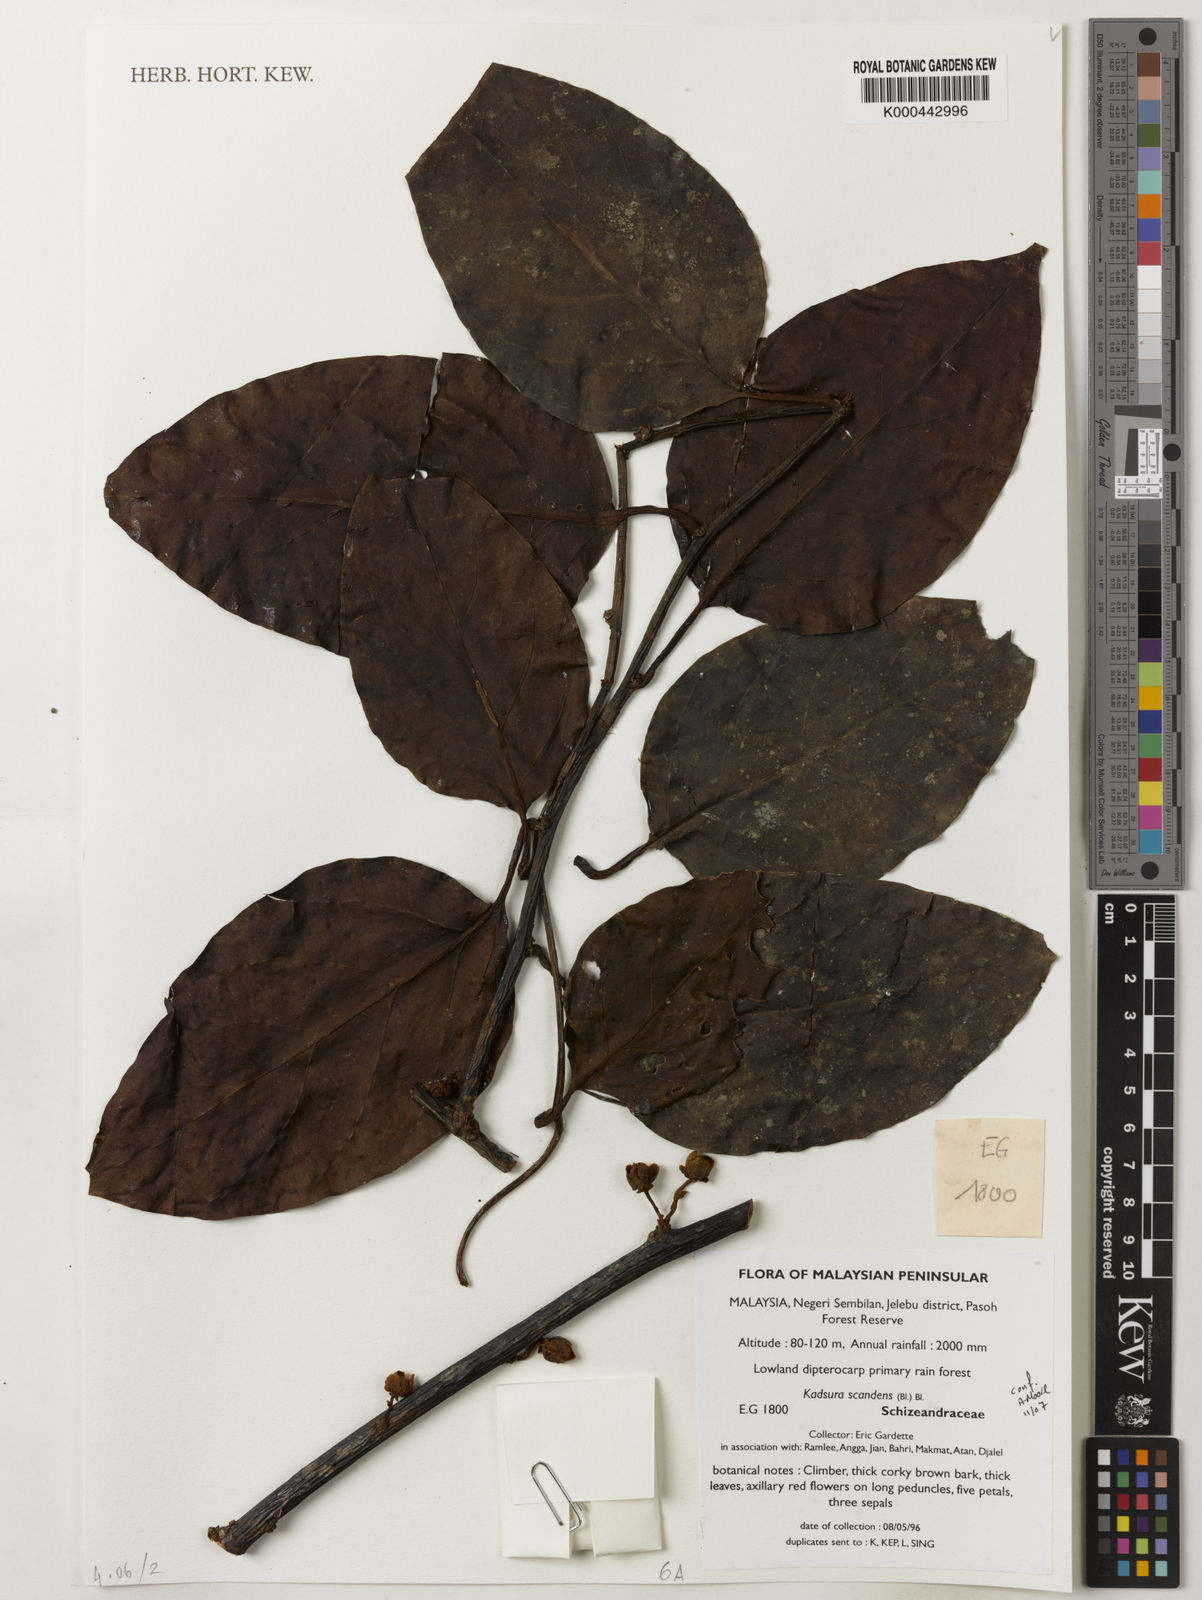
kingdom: Plantae
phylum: Tracheophyta
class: Magnoliopsida
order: Austrobaileyales
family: Schisandraceae
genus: Kadsura
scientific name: Kadsura scandens
